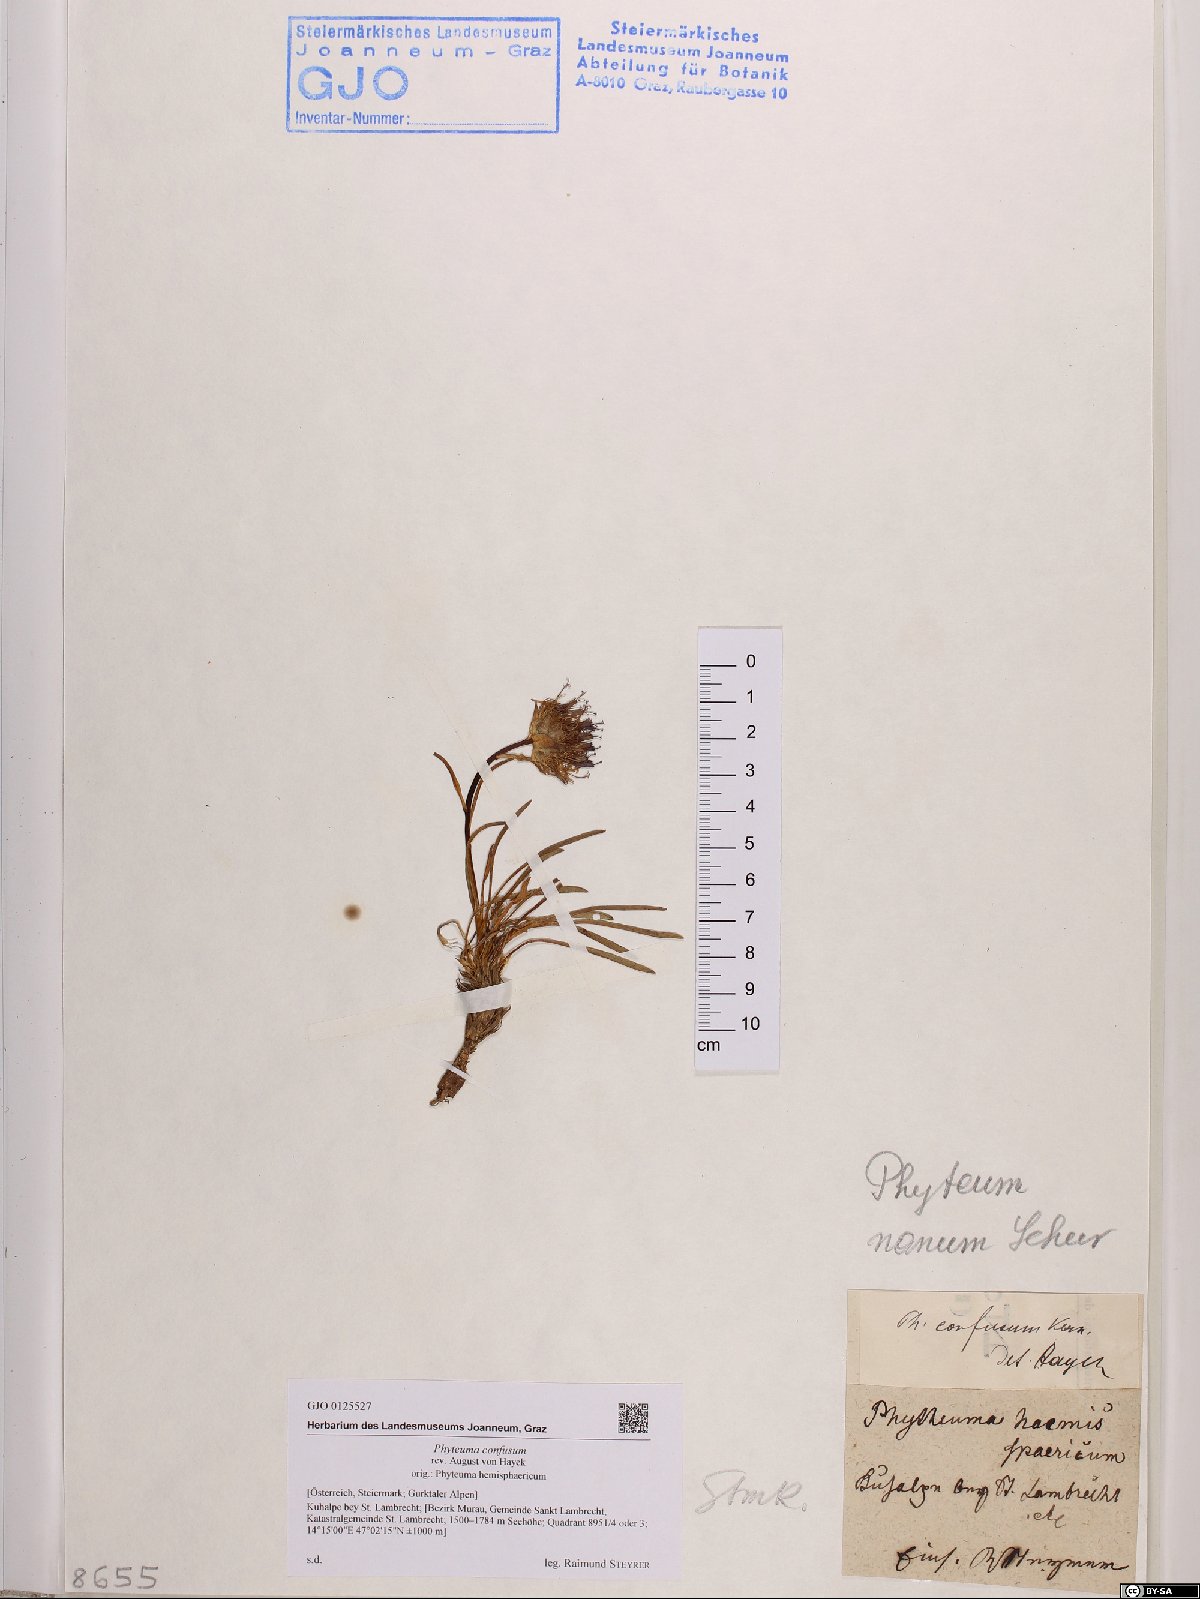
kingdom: Plantae
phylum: Tracheophyta
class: Magnoliopsida
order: Asterales
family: Campanulaceae
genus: Phyteuma
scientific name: Phyteuma confusum
